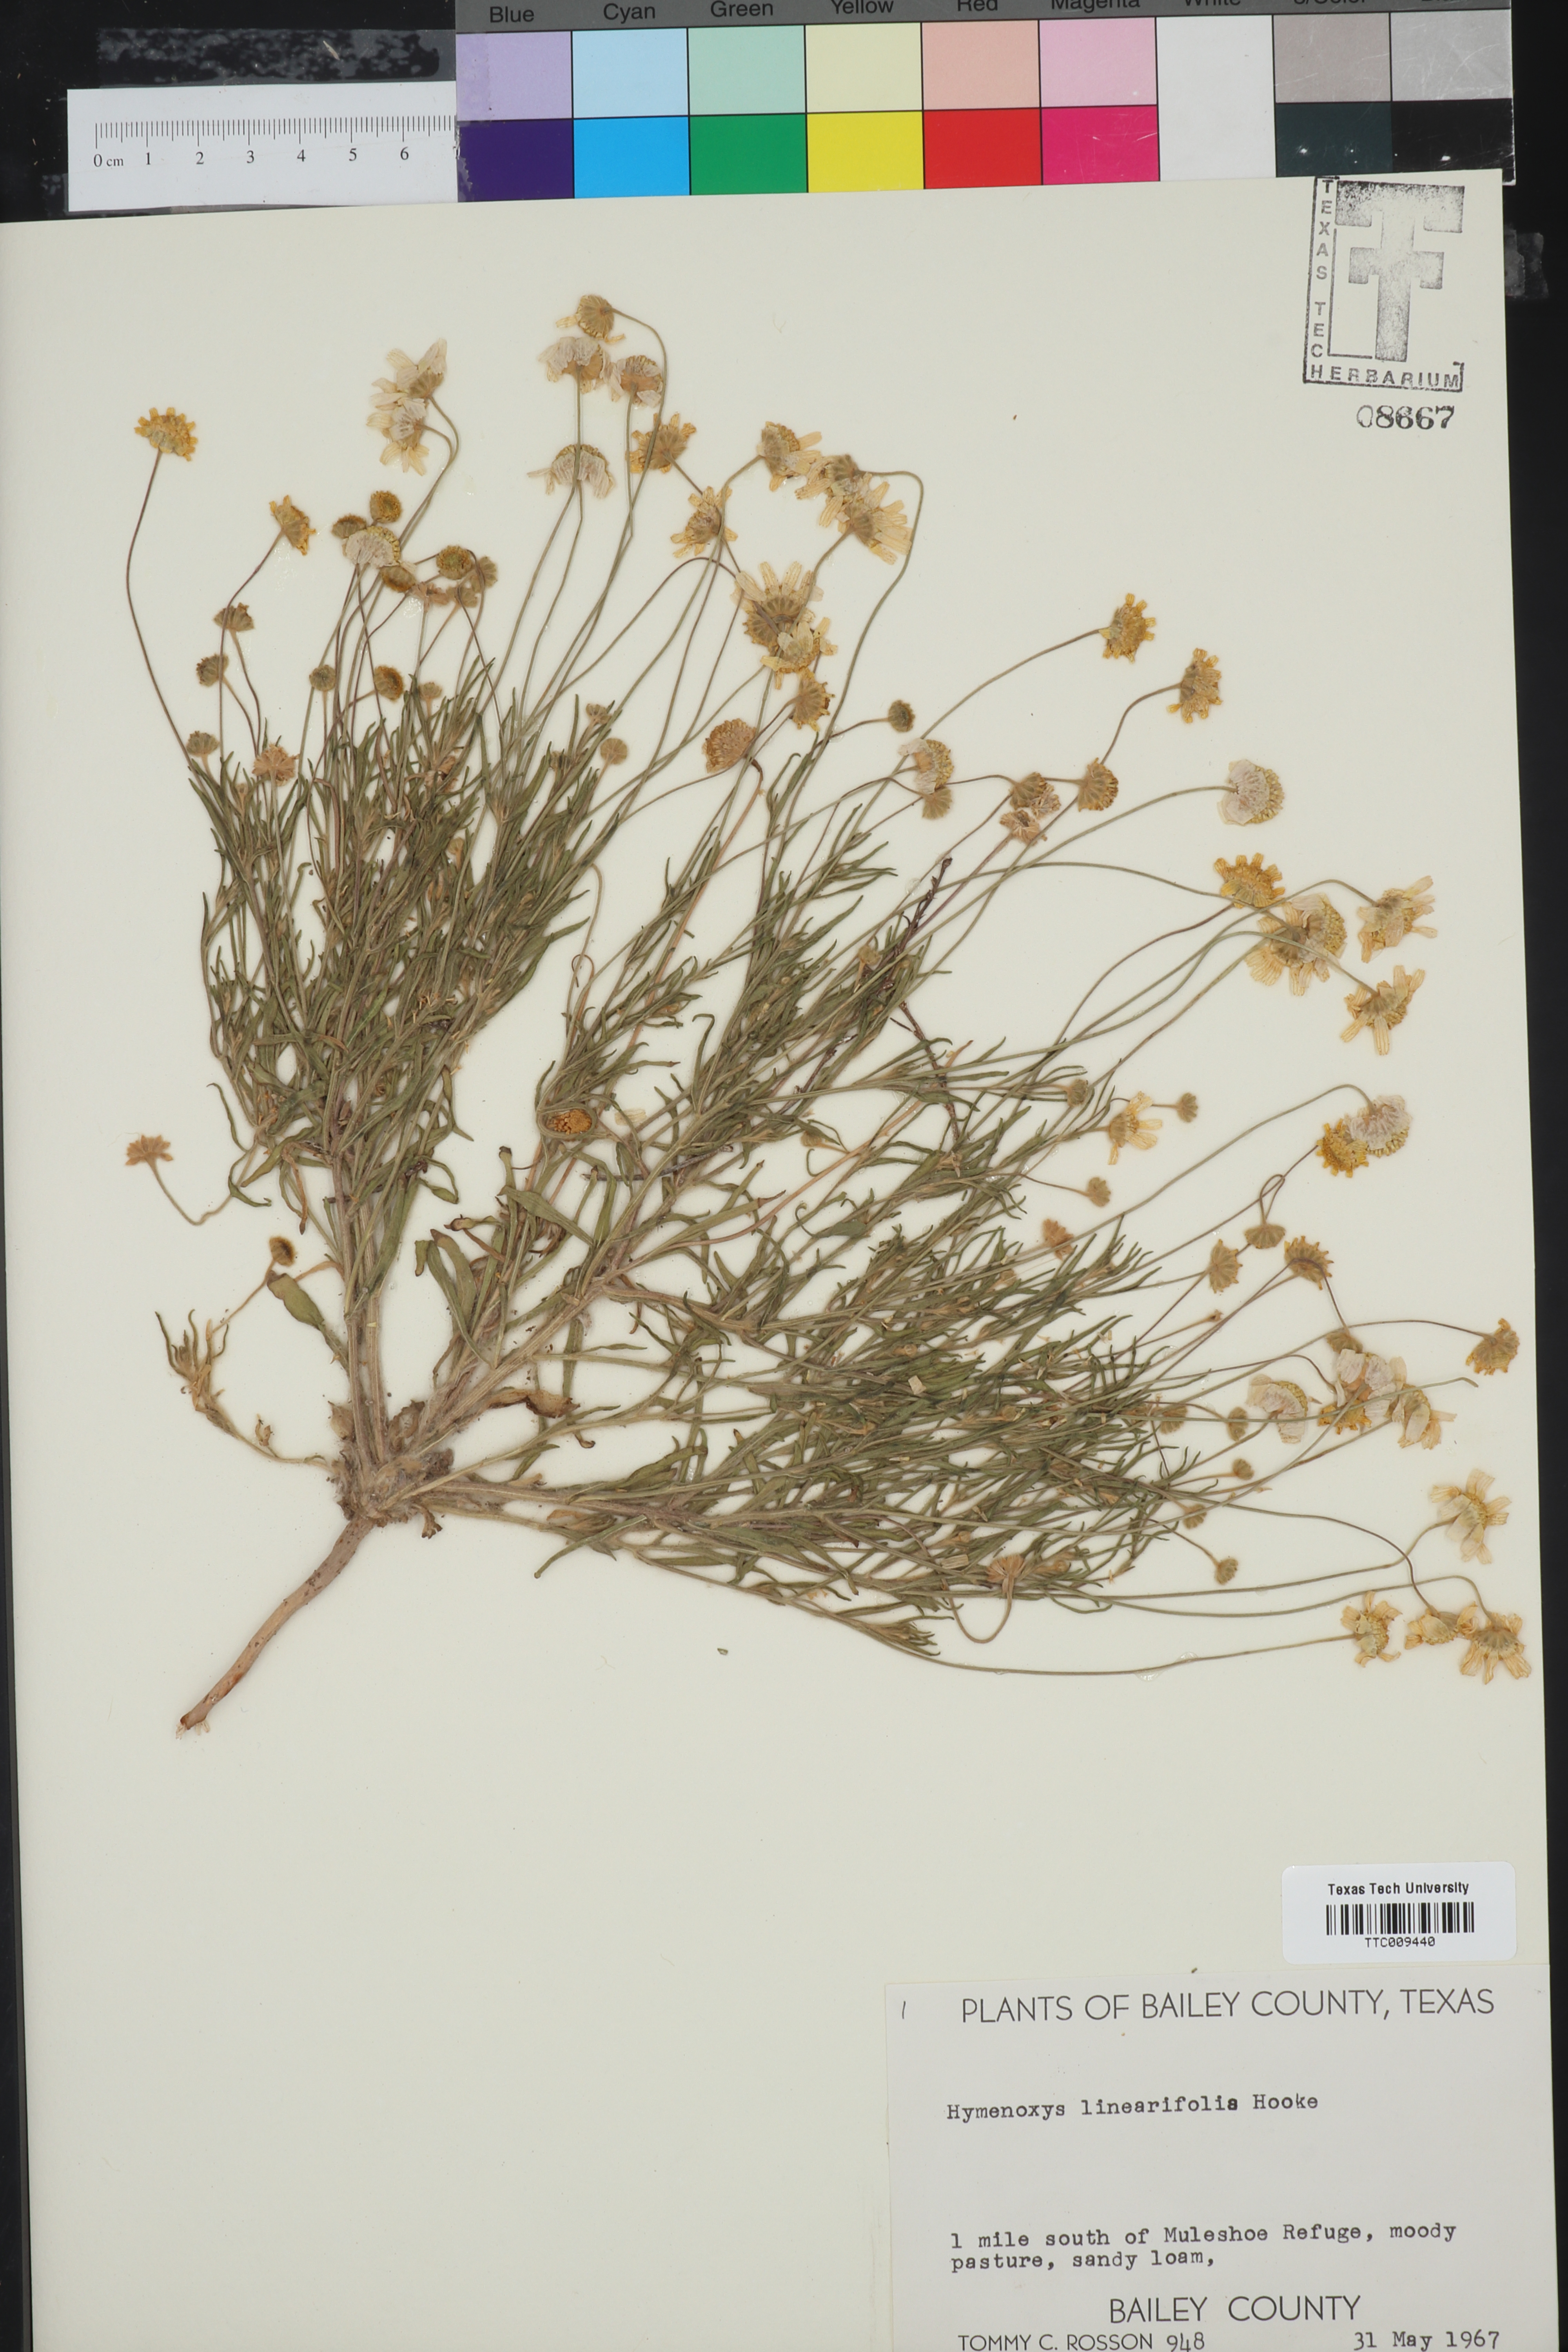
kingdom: Plantae
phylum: Tracheophyta
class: Magnoliopsida
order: Asterales
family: Asteraceae
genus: Tetraneuris
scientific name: Tetraneuris linearifolia
